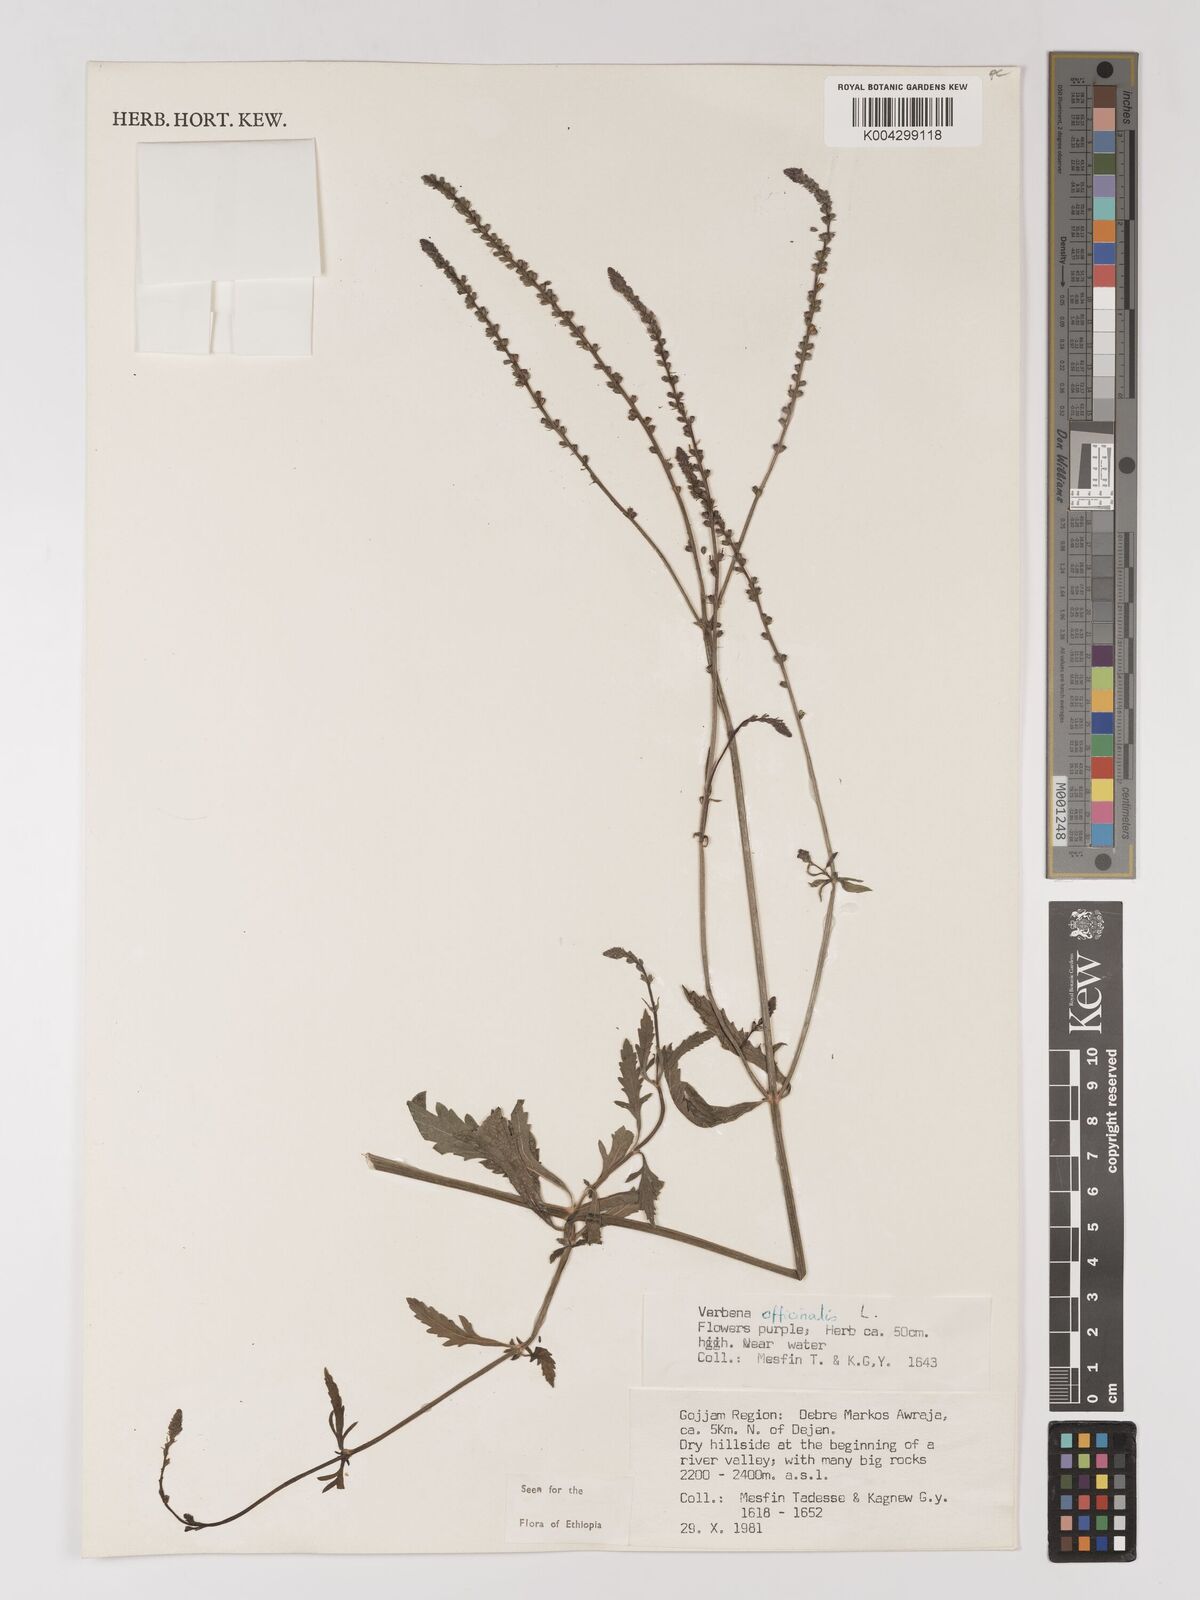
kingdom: Plantae
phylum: Tracheophyta
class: Magnoliopsida
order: Lamiales
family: Verbenaceae
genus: Verbena
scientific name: Verbena officinalis
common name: Vervain
